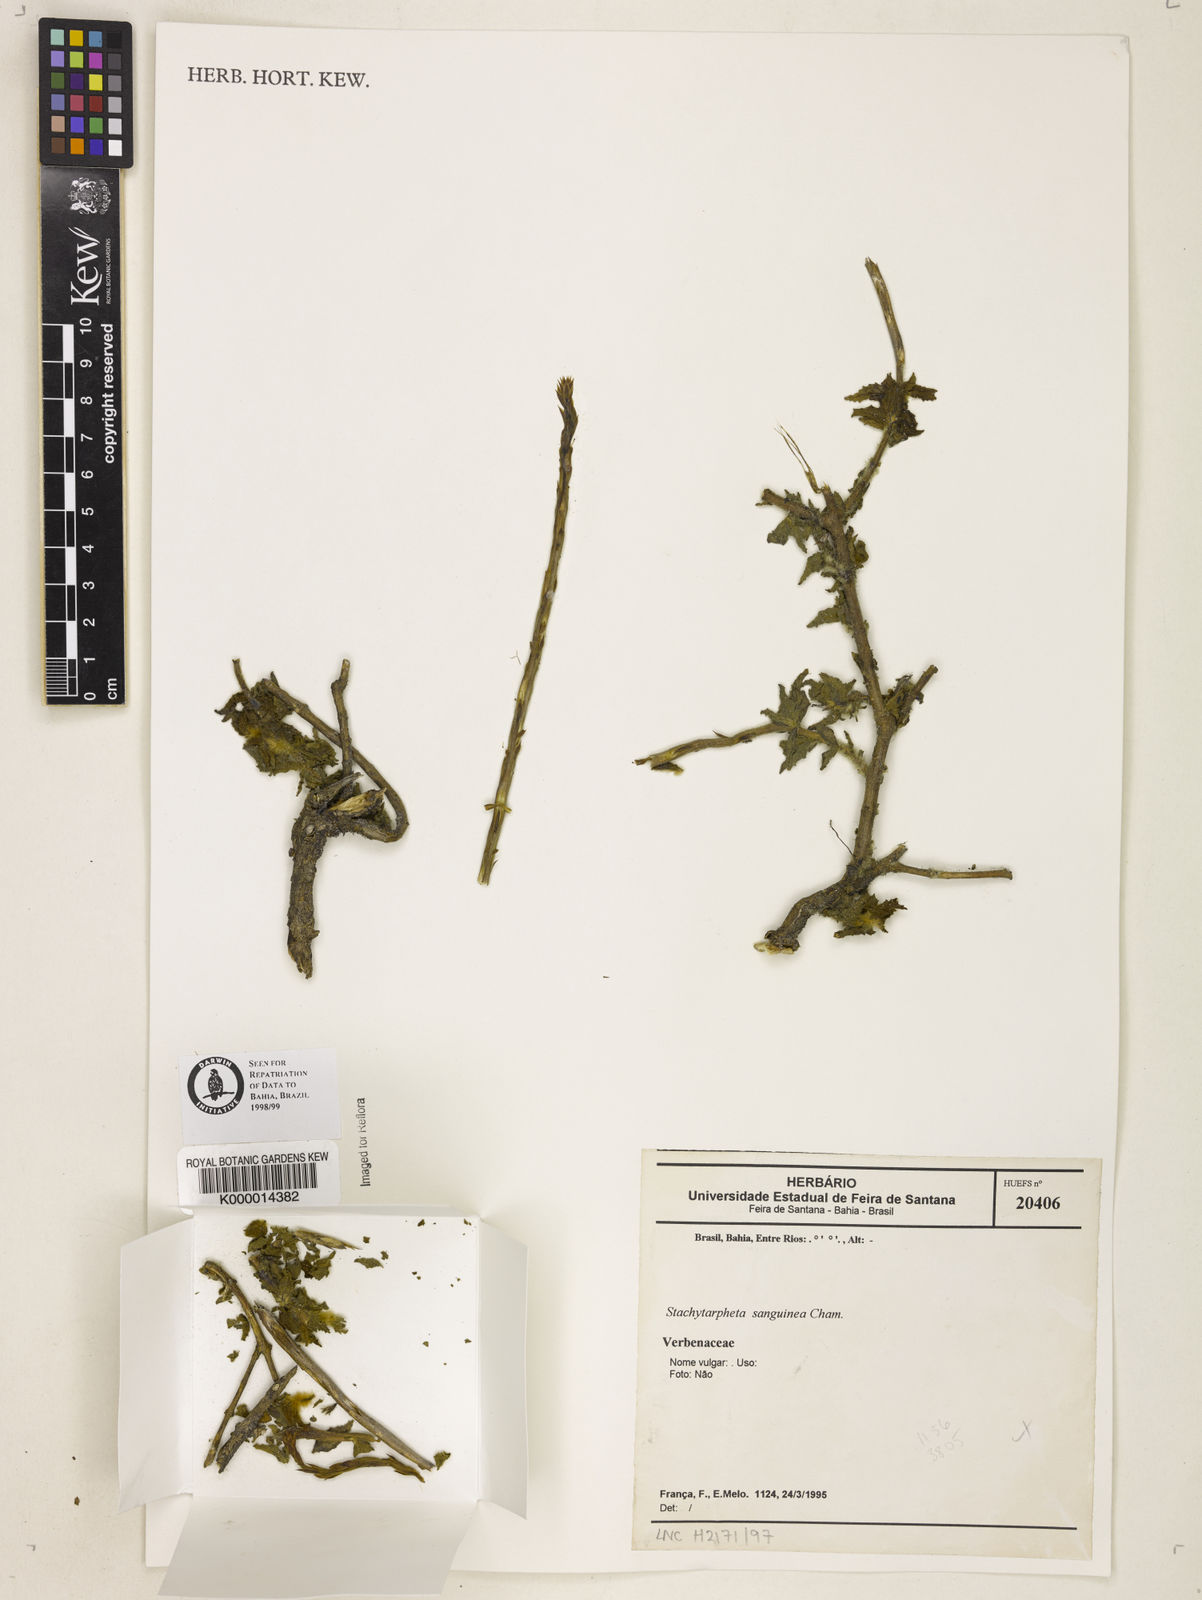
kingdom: Plantae
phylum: Tracheophyta
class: Magnoliopsida
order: Lamiales
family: Verbenaceae
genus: Stachytarpheta
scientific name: Stachytarpheta
